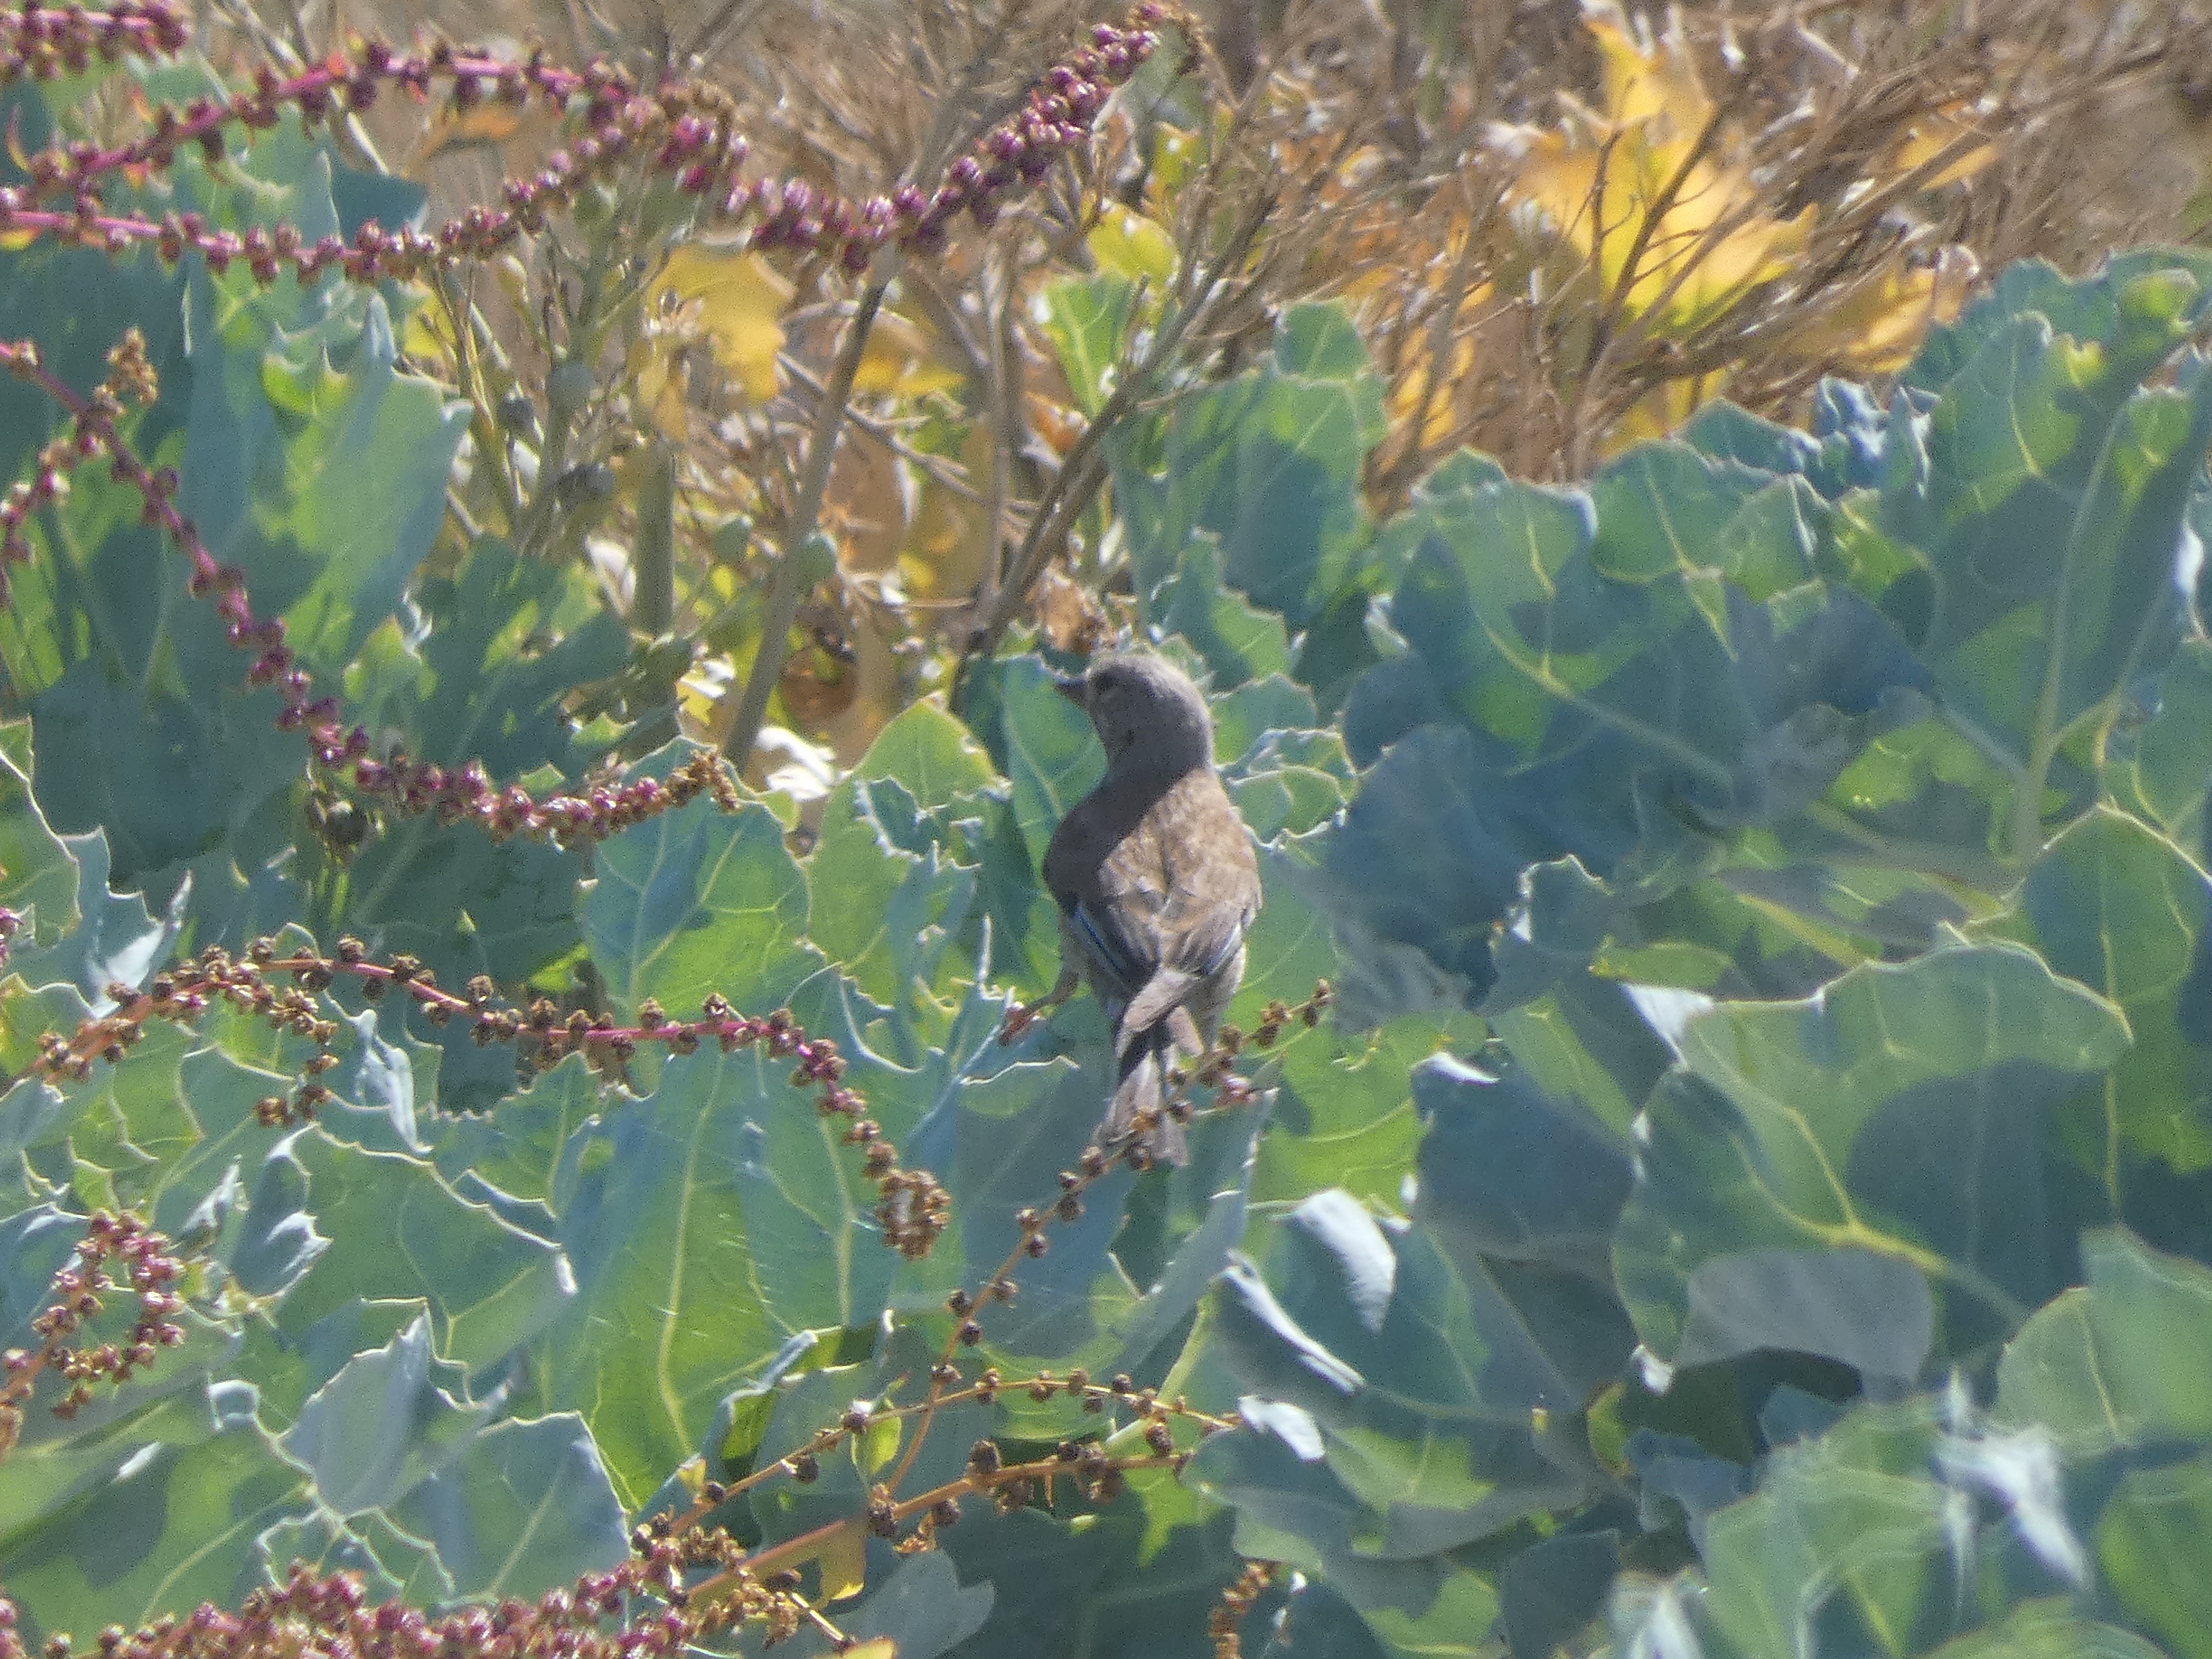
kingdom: Animalia
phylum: Chordata
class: Aves
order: Passeriformes
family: Fringillidae
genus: Linaria
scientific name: Linaria cannabina
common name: Tornirisk
